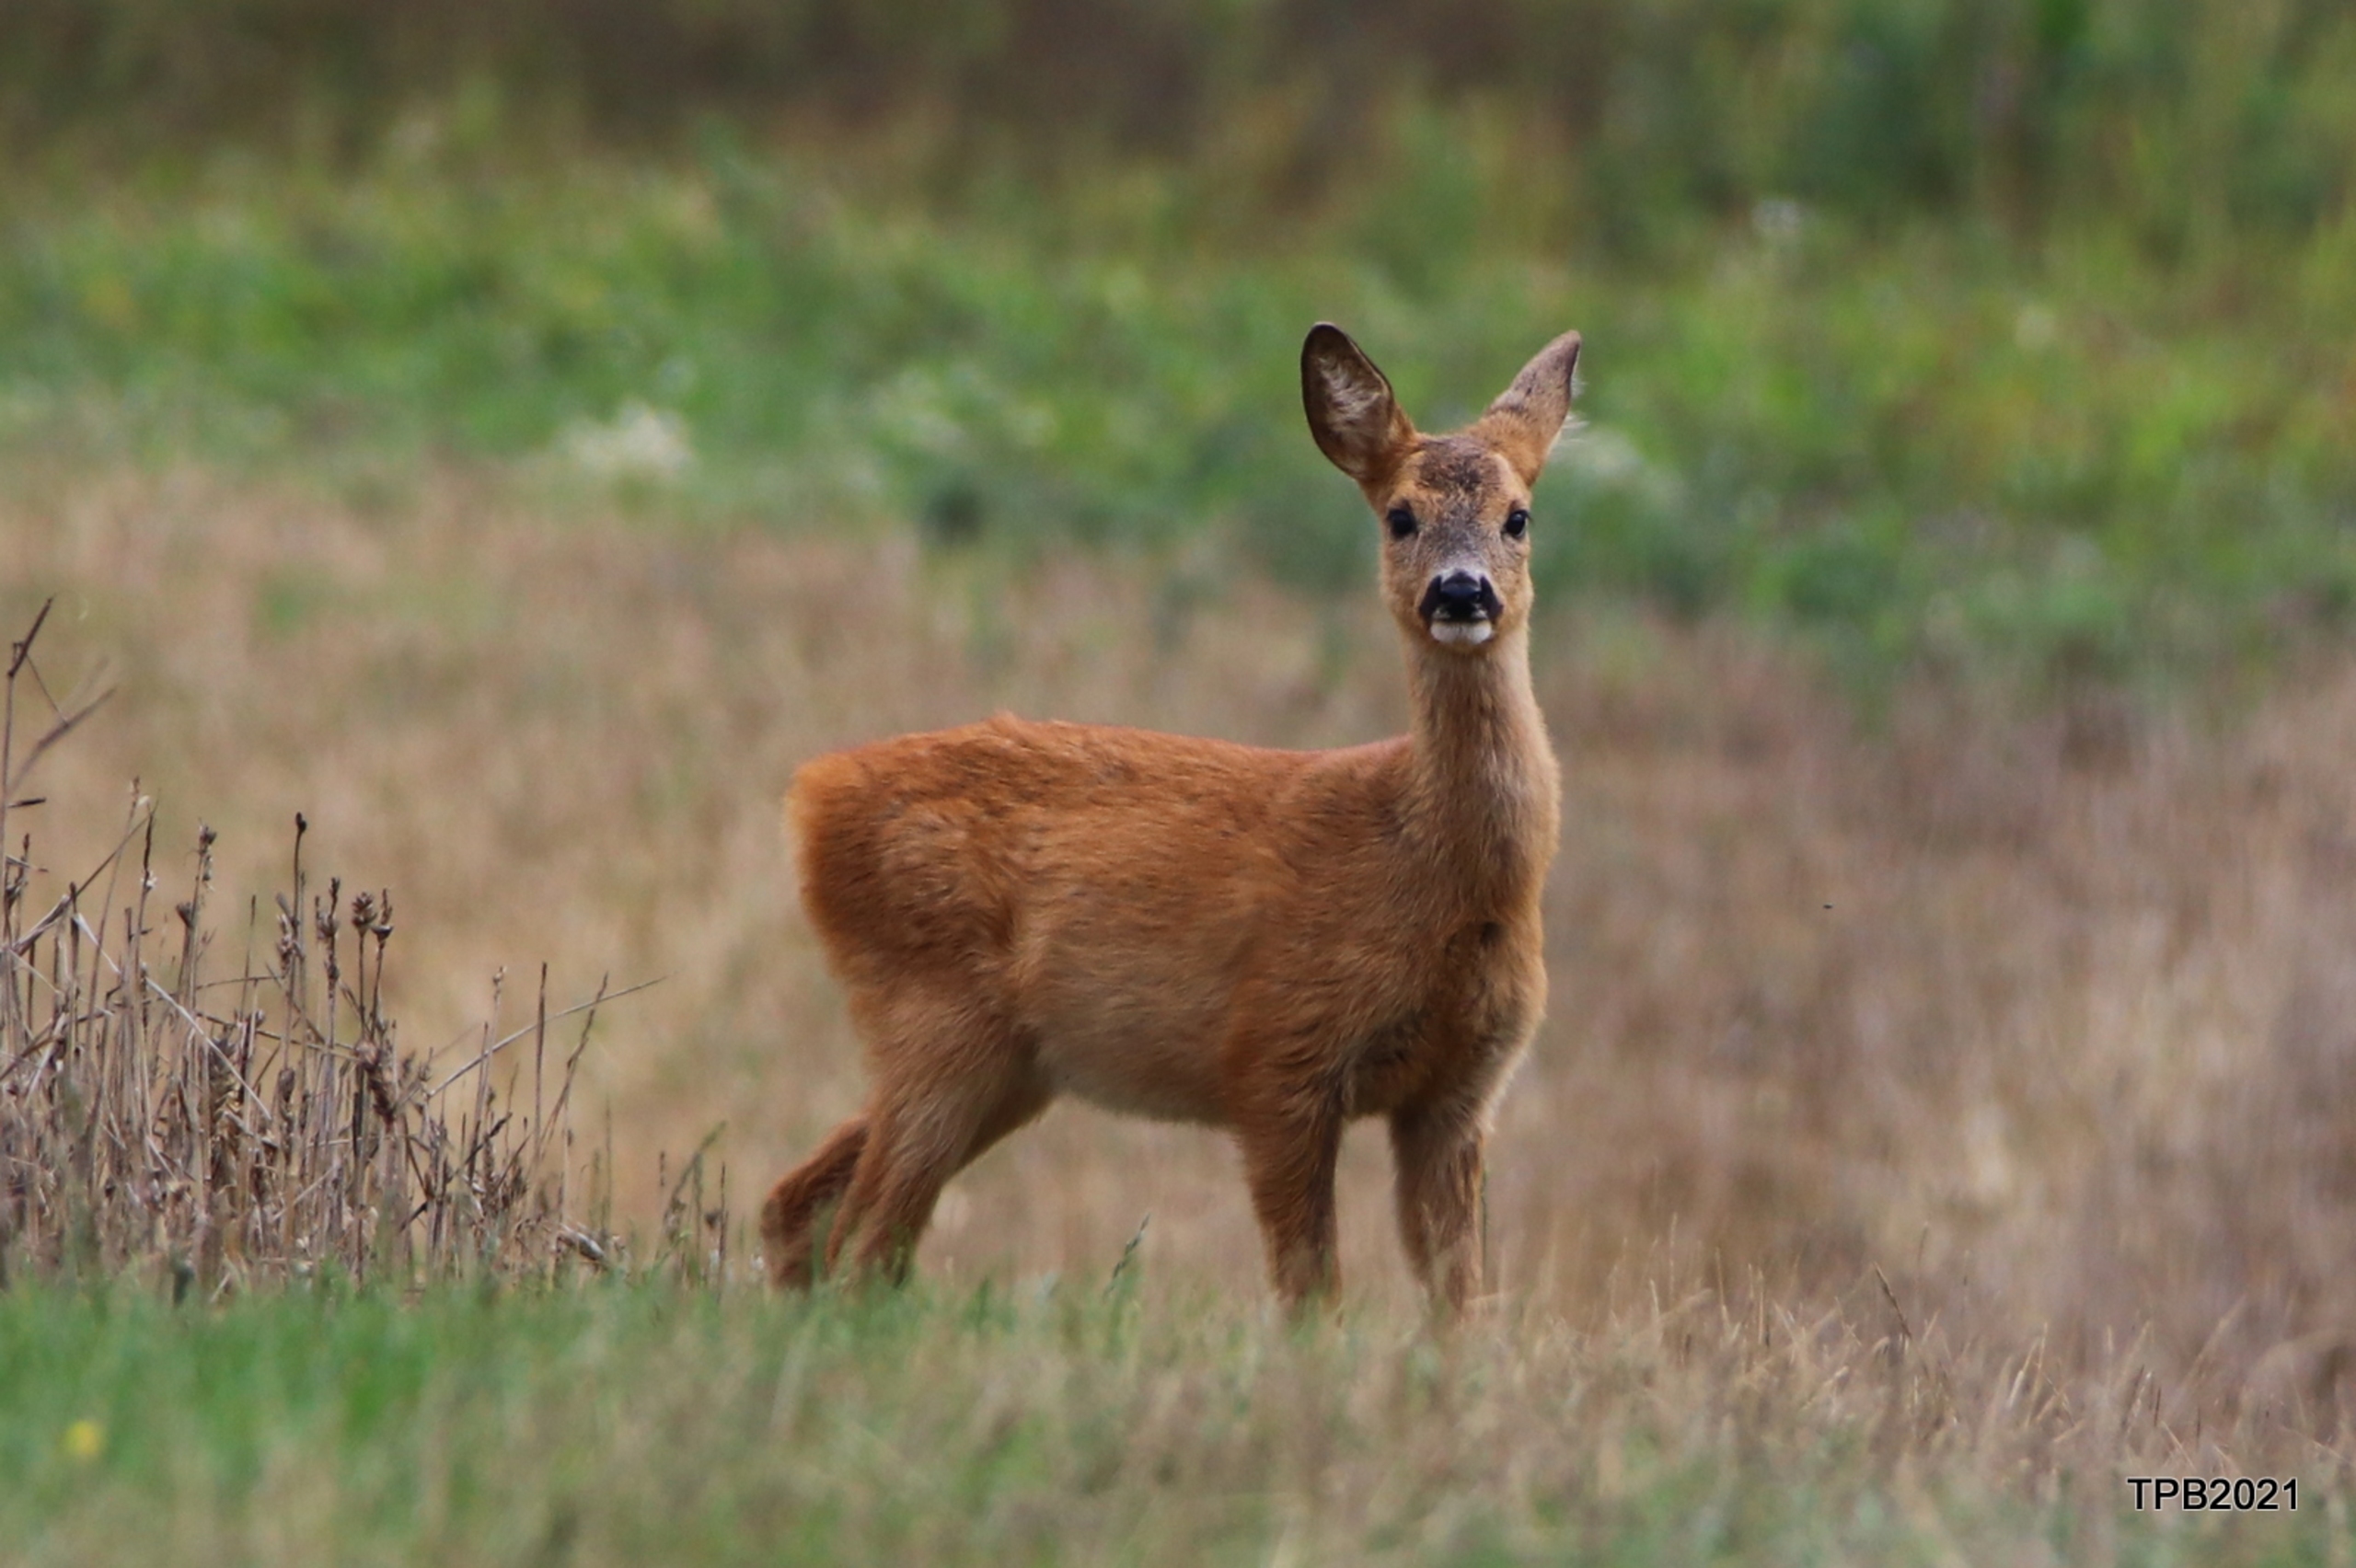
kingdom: Animalia
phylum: Chordata
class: Mammalia
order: Artiodactyla
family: Cervidae
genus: Capreolus
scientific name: Capreolus capreolus
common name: Rådyr
